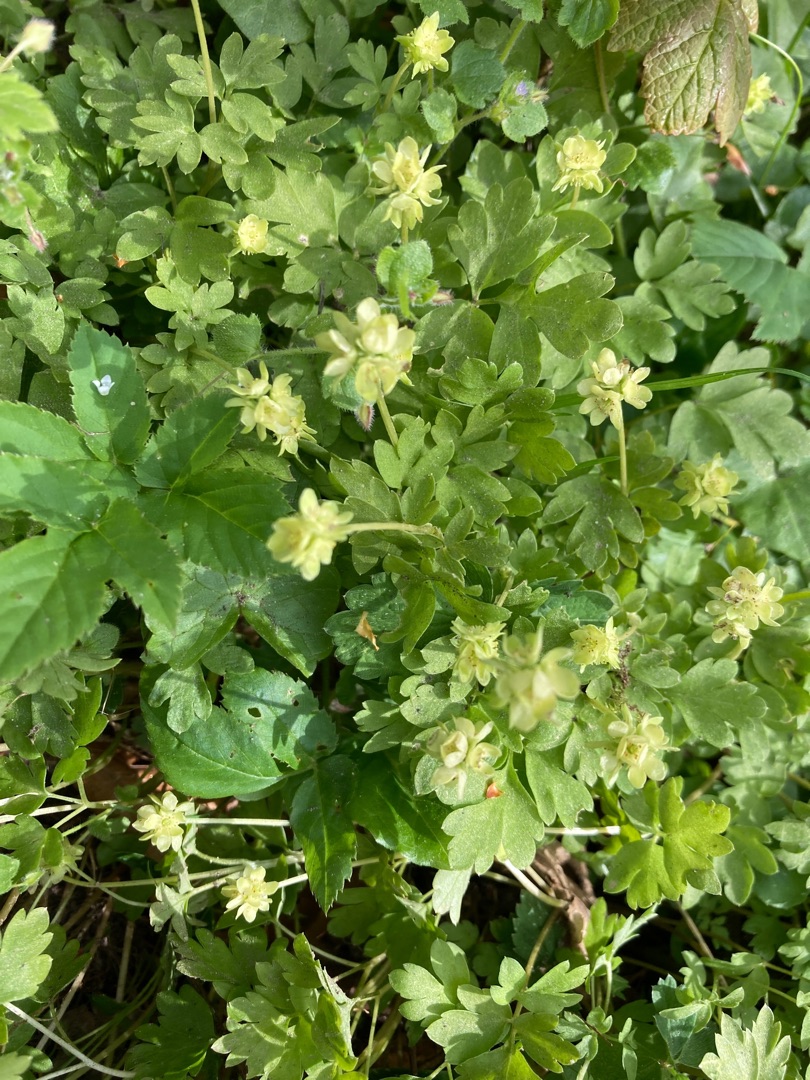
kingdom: Plantae
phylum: Tracheophyta
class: Magnoliopsida
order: Dipsacales
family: Viburnaceae
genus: Adoxa
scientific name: Adoxa moschatellina
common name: Desmerurt
